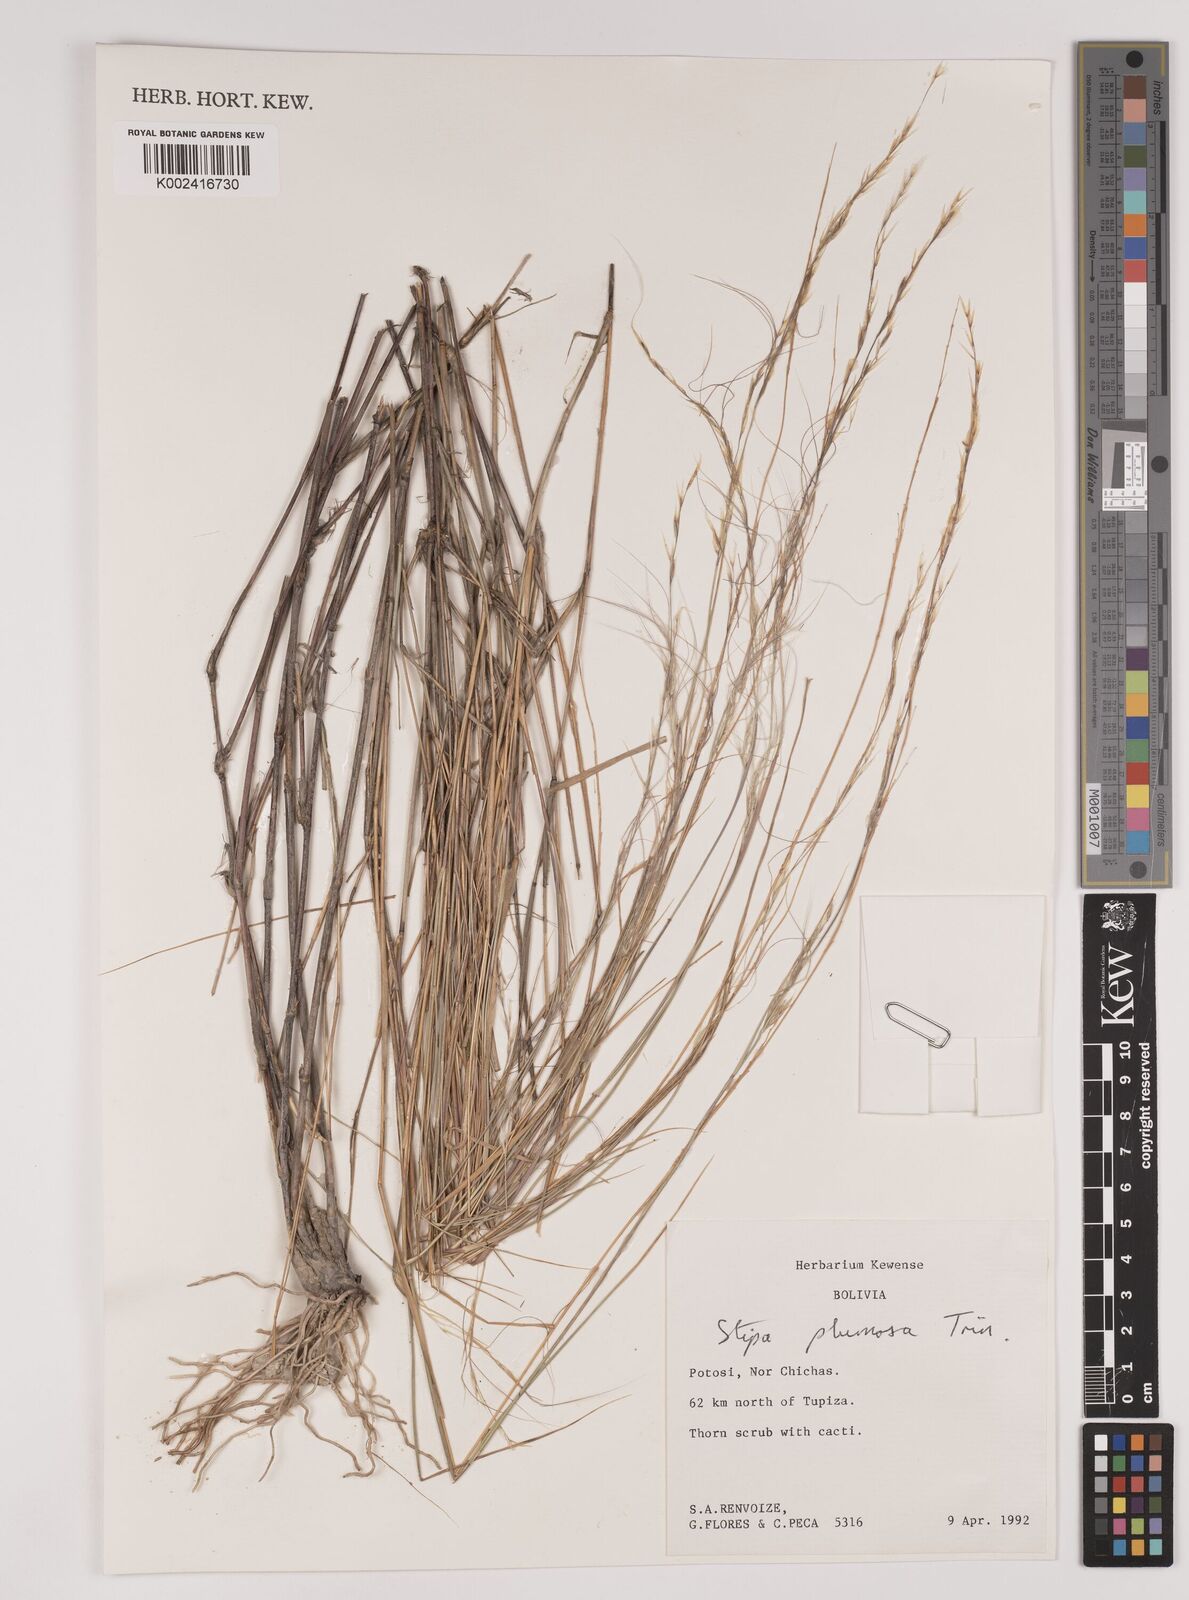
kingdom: Plantae
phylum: Tracheophyta
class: Liliopsida
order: Poales
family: Poaceae
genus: Stipa
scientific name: Stipa plumosa
